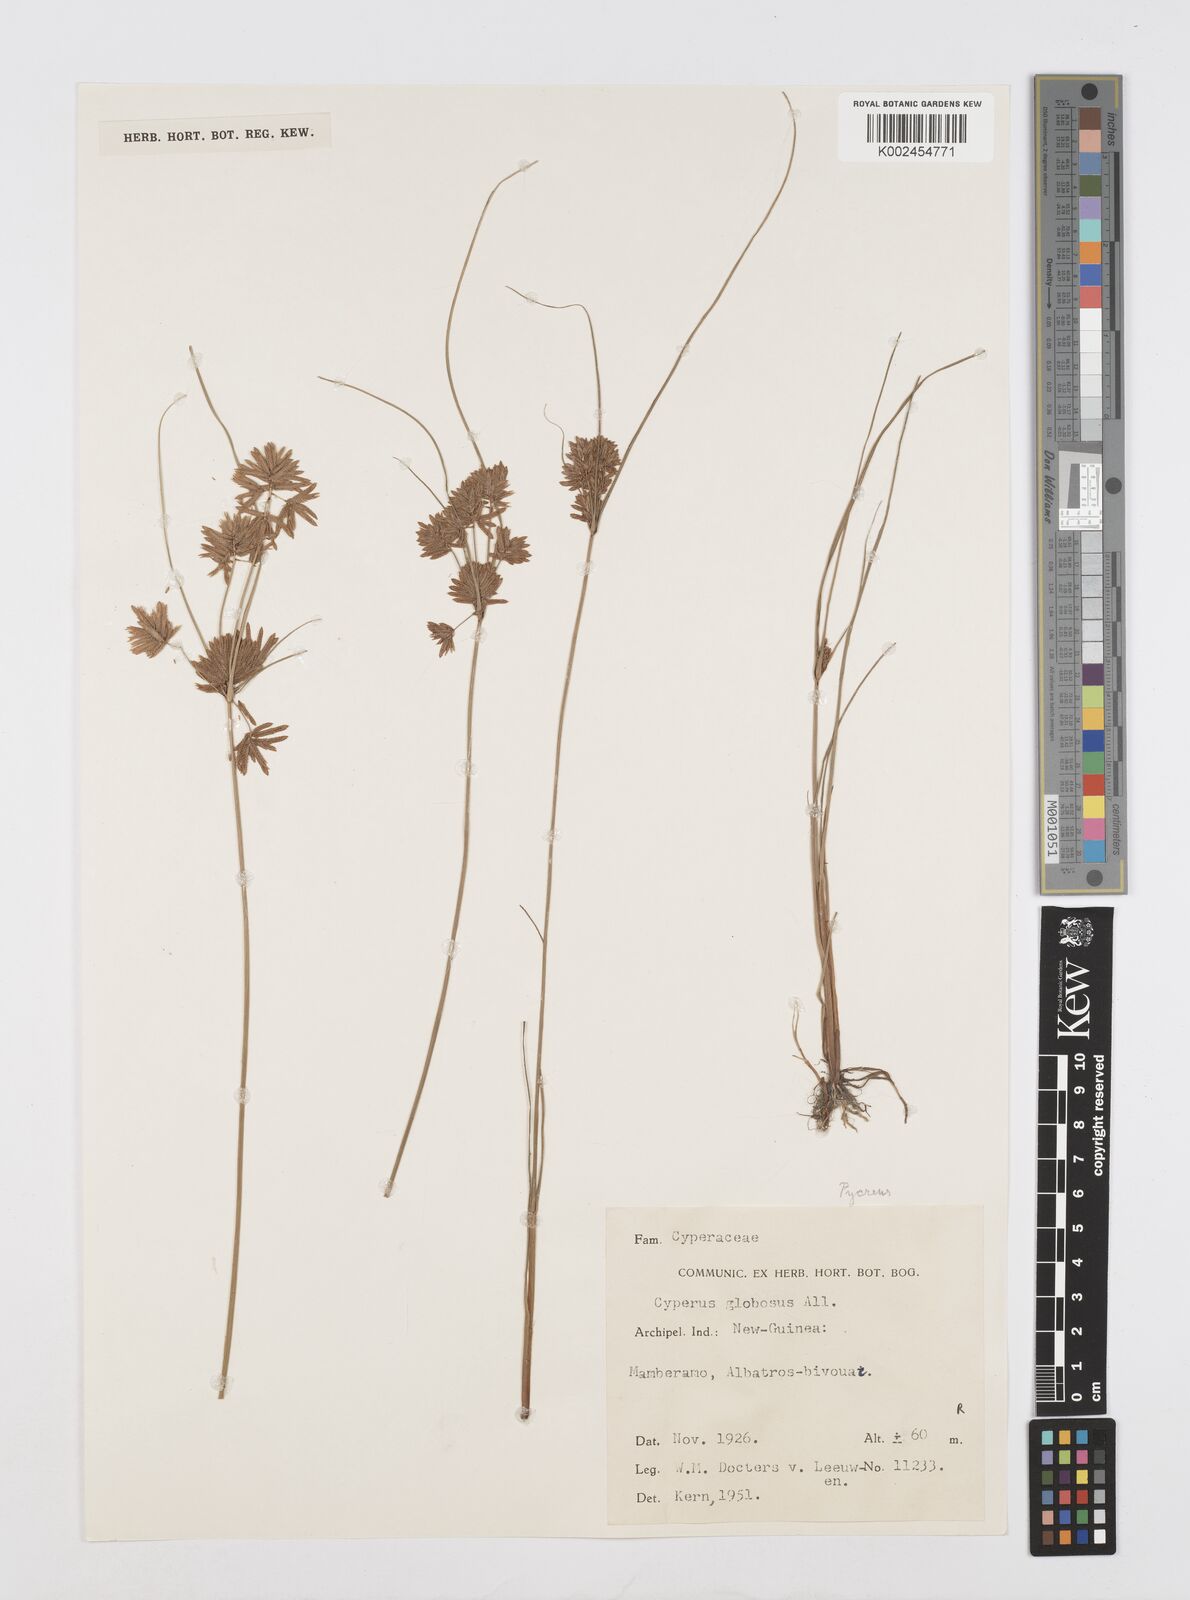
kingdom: Plantae
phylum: Tracheophyta
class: Liliopsida
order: Poales
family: Cyperaceae
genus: Cyperus
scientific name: Cyperus flavidus
